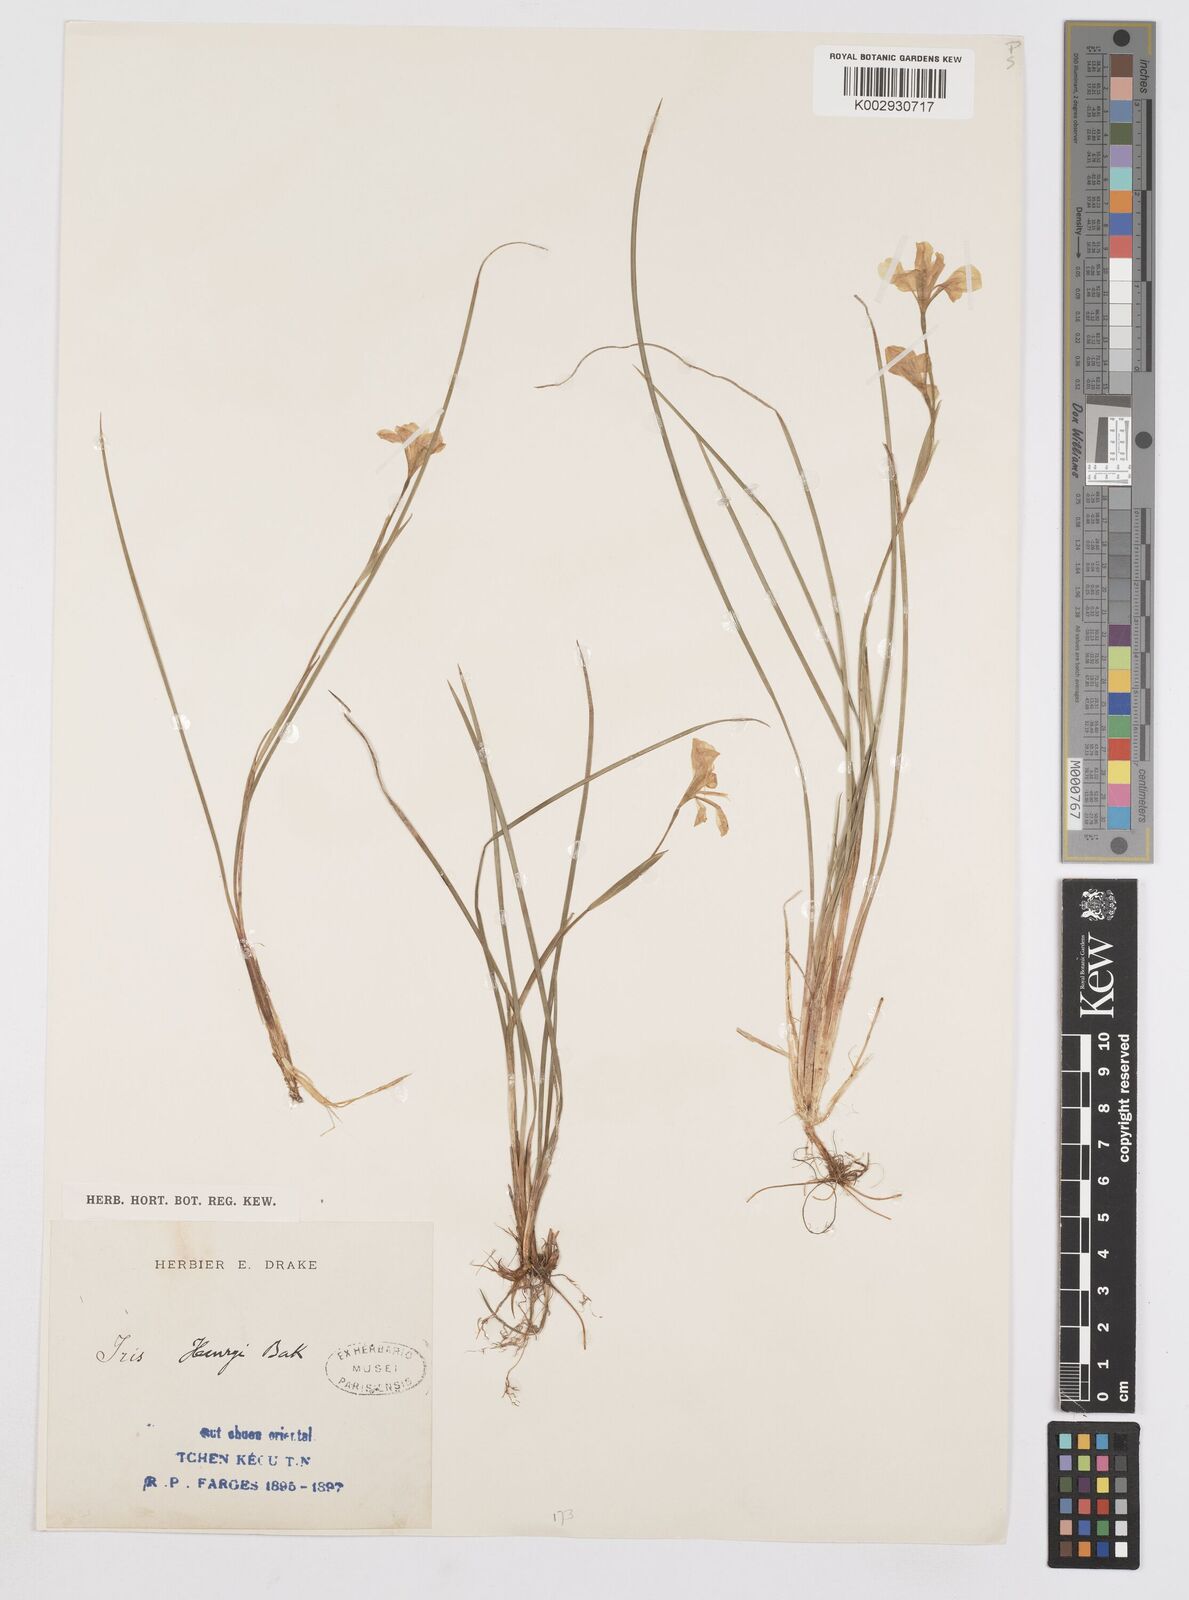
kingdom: Plantae
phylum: Tracheophyta
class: Liliopsida
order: Asparagales
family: Iridaceae
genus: Iris
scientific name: Iris henryi
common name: Long-pedicel iris
